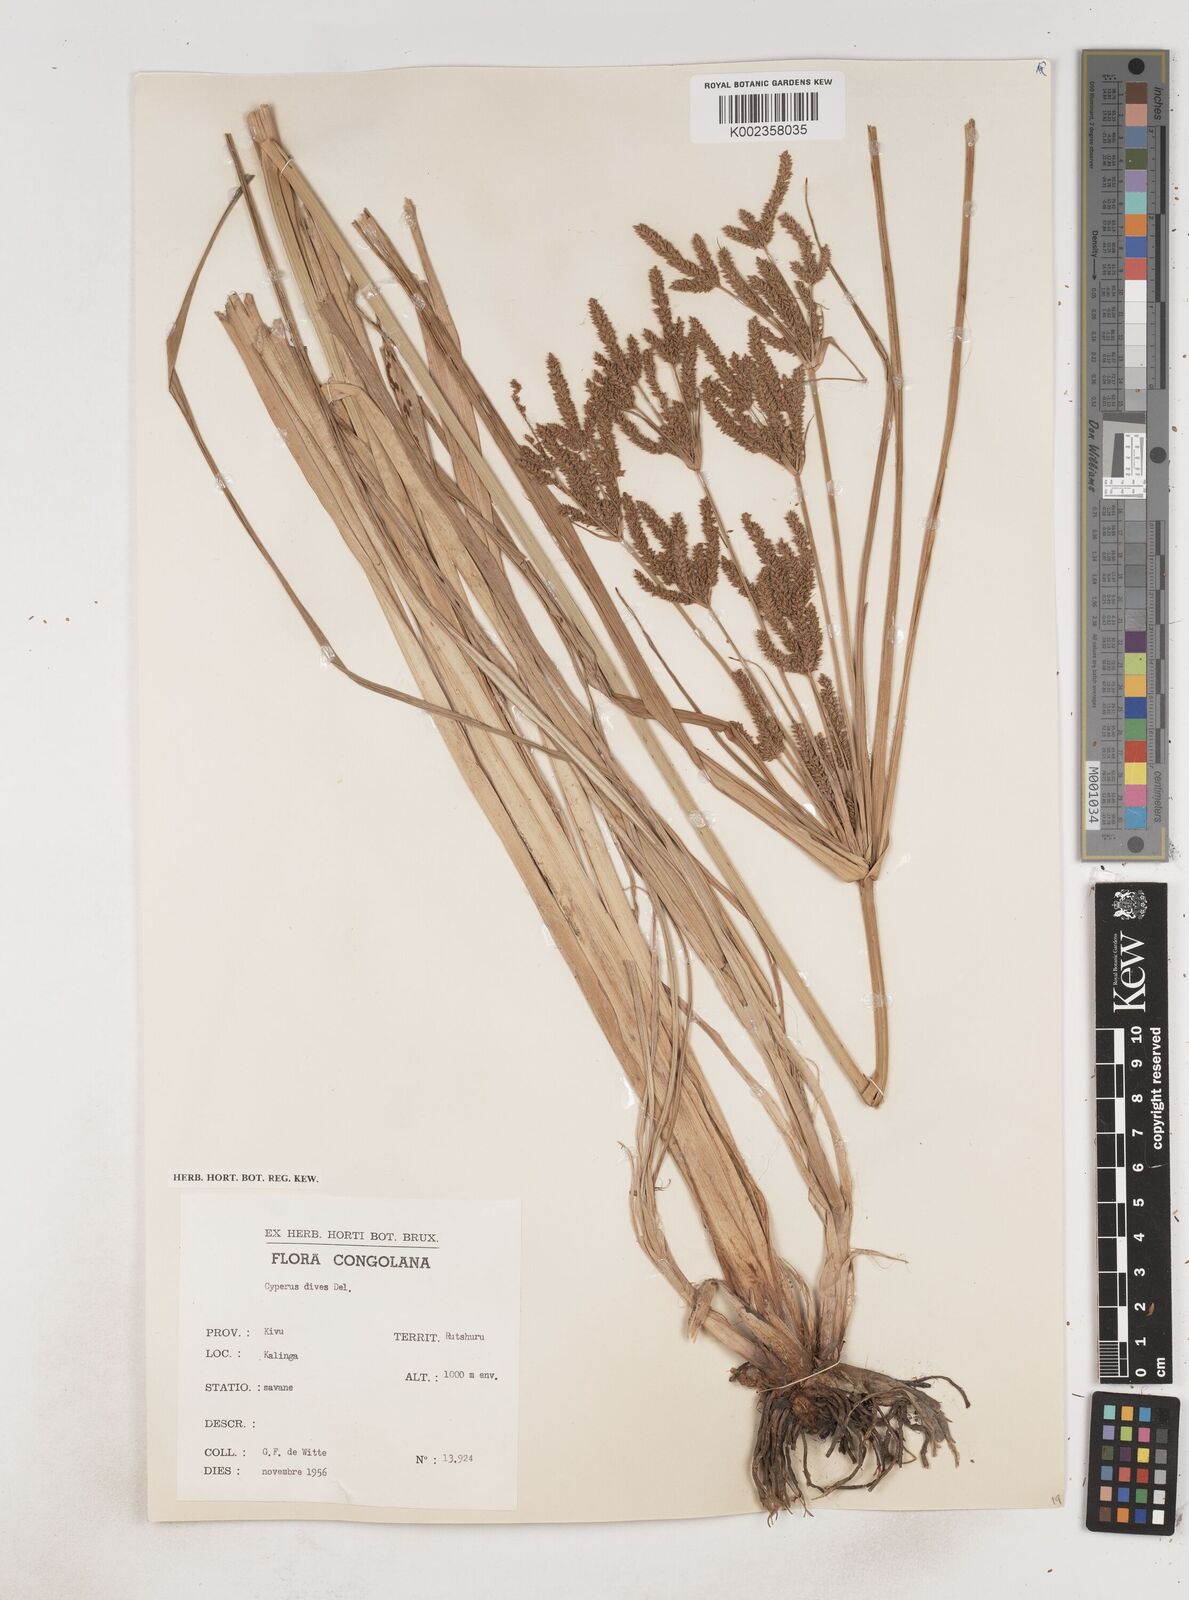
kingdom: Plantae
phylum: Tracheophyta
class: Liliopsida
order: Poales
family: Cyperaceae
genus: Cyperus
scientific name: Cyperus dives
